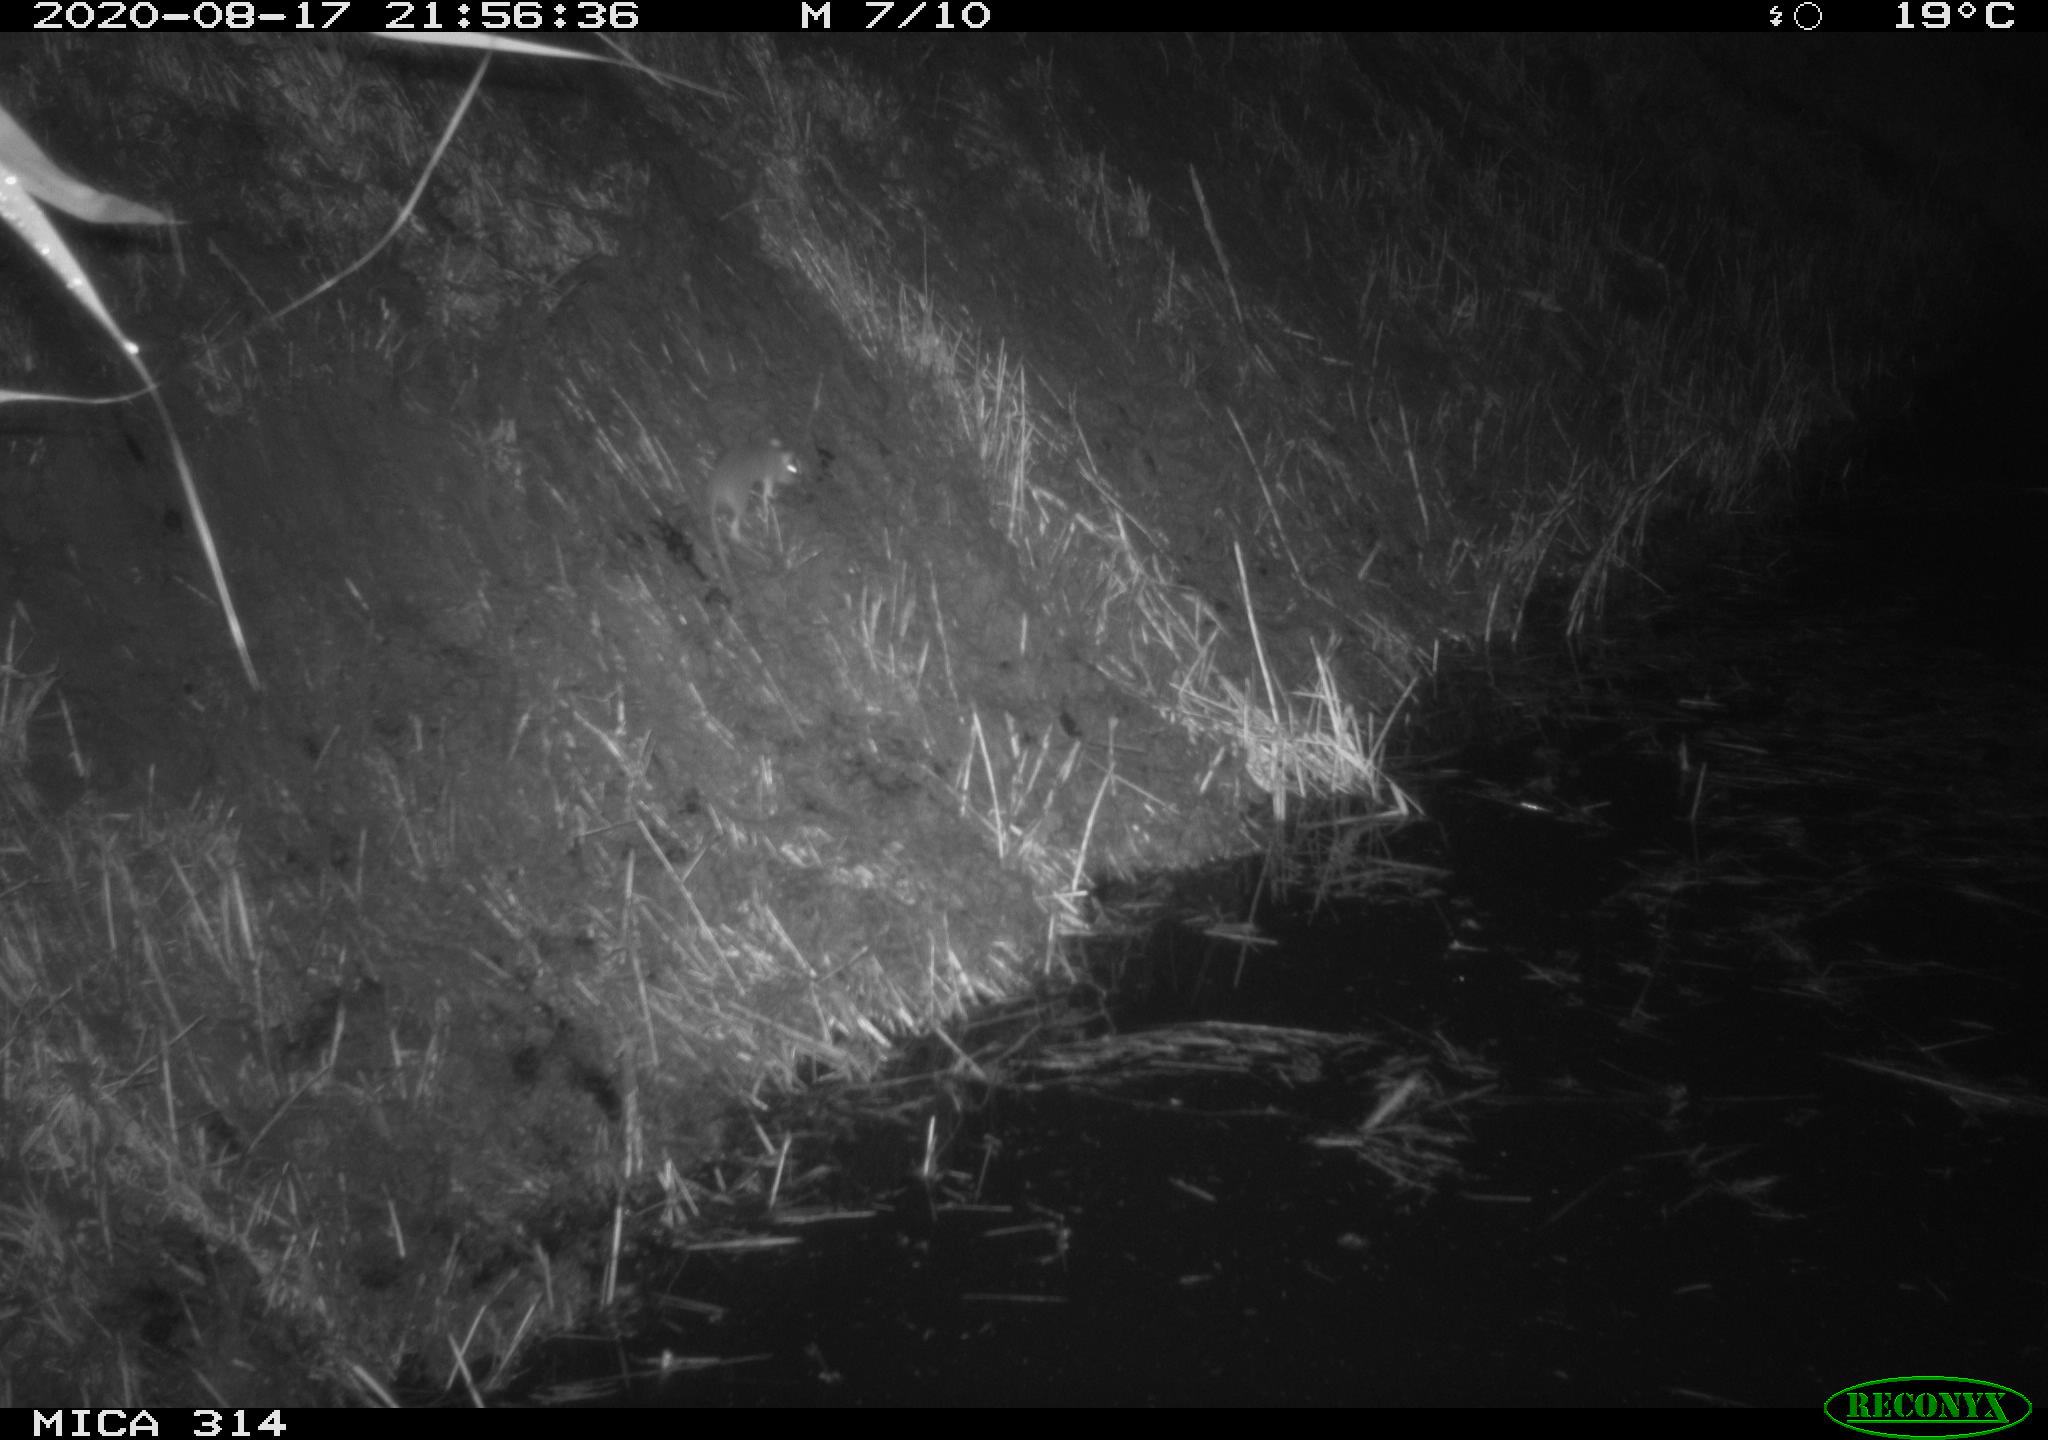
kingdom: Animalia
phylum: Chordata
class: Mammalia
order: Rodentia
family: Muridae
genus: Rattus
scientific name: Rattus norvegicus
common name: Brown rat
